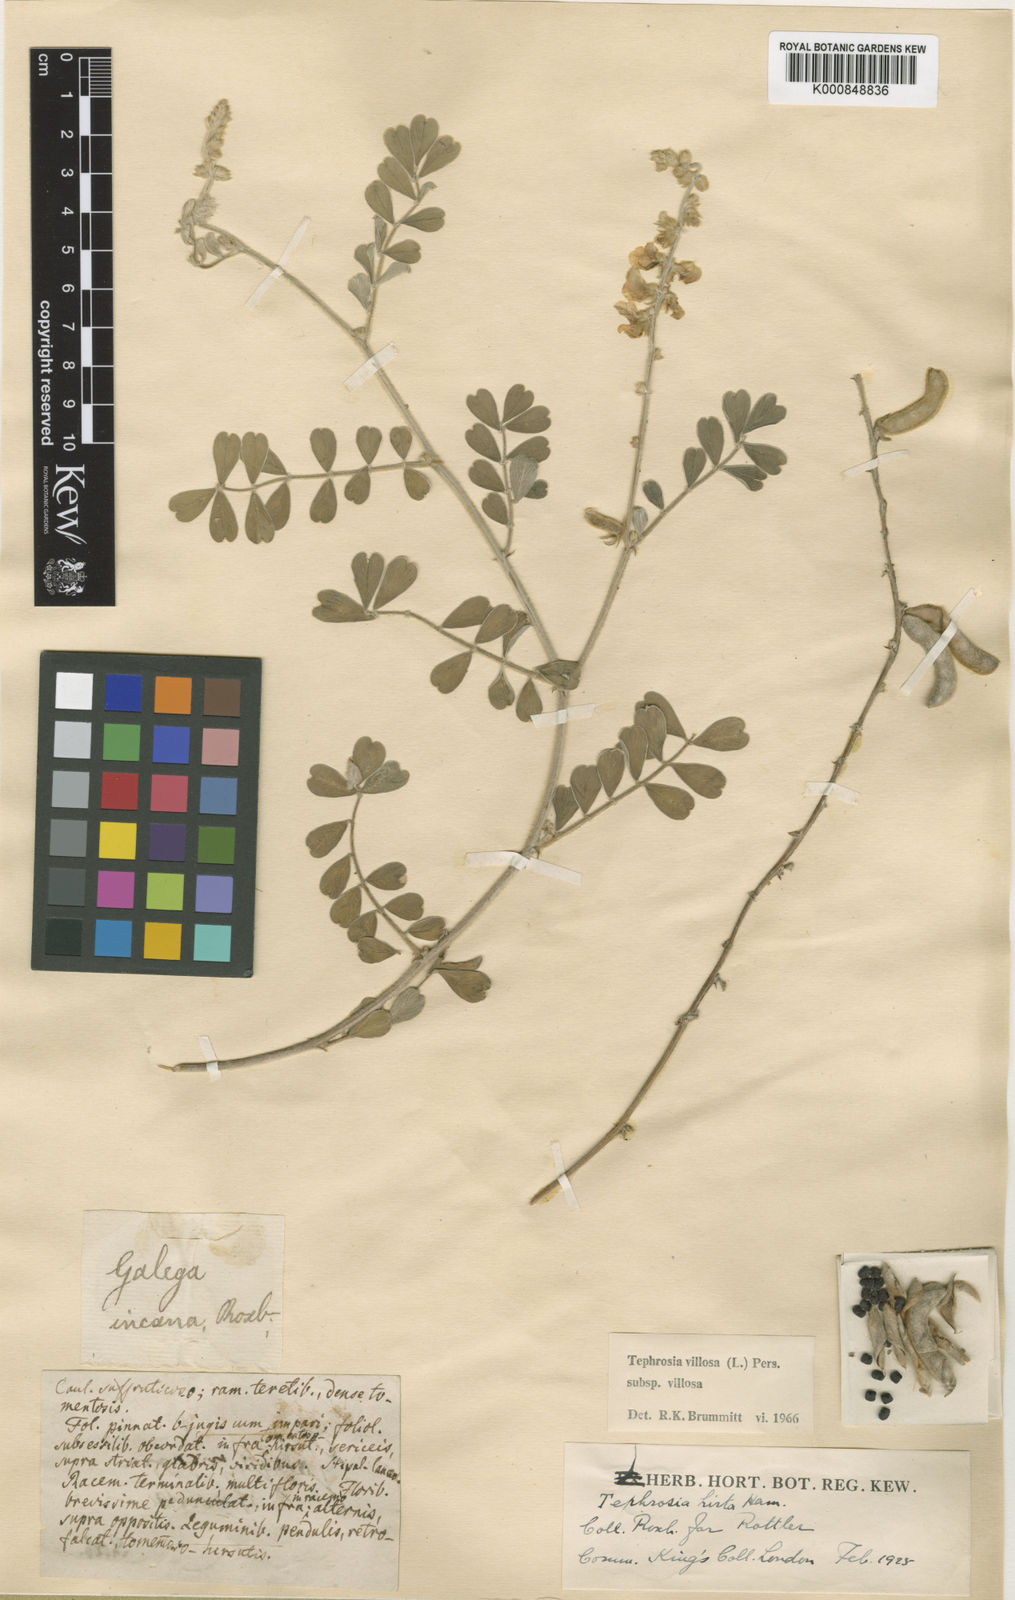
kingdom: Plantae
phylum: Tracheophyta
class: Magnoliopsida
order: Fabales
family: Fabaceae
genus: Tephrosia
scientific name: Tephrosia villosa
